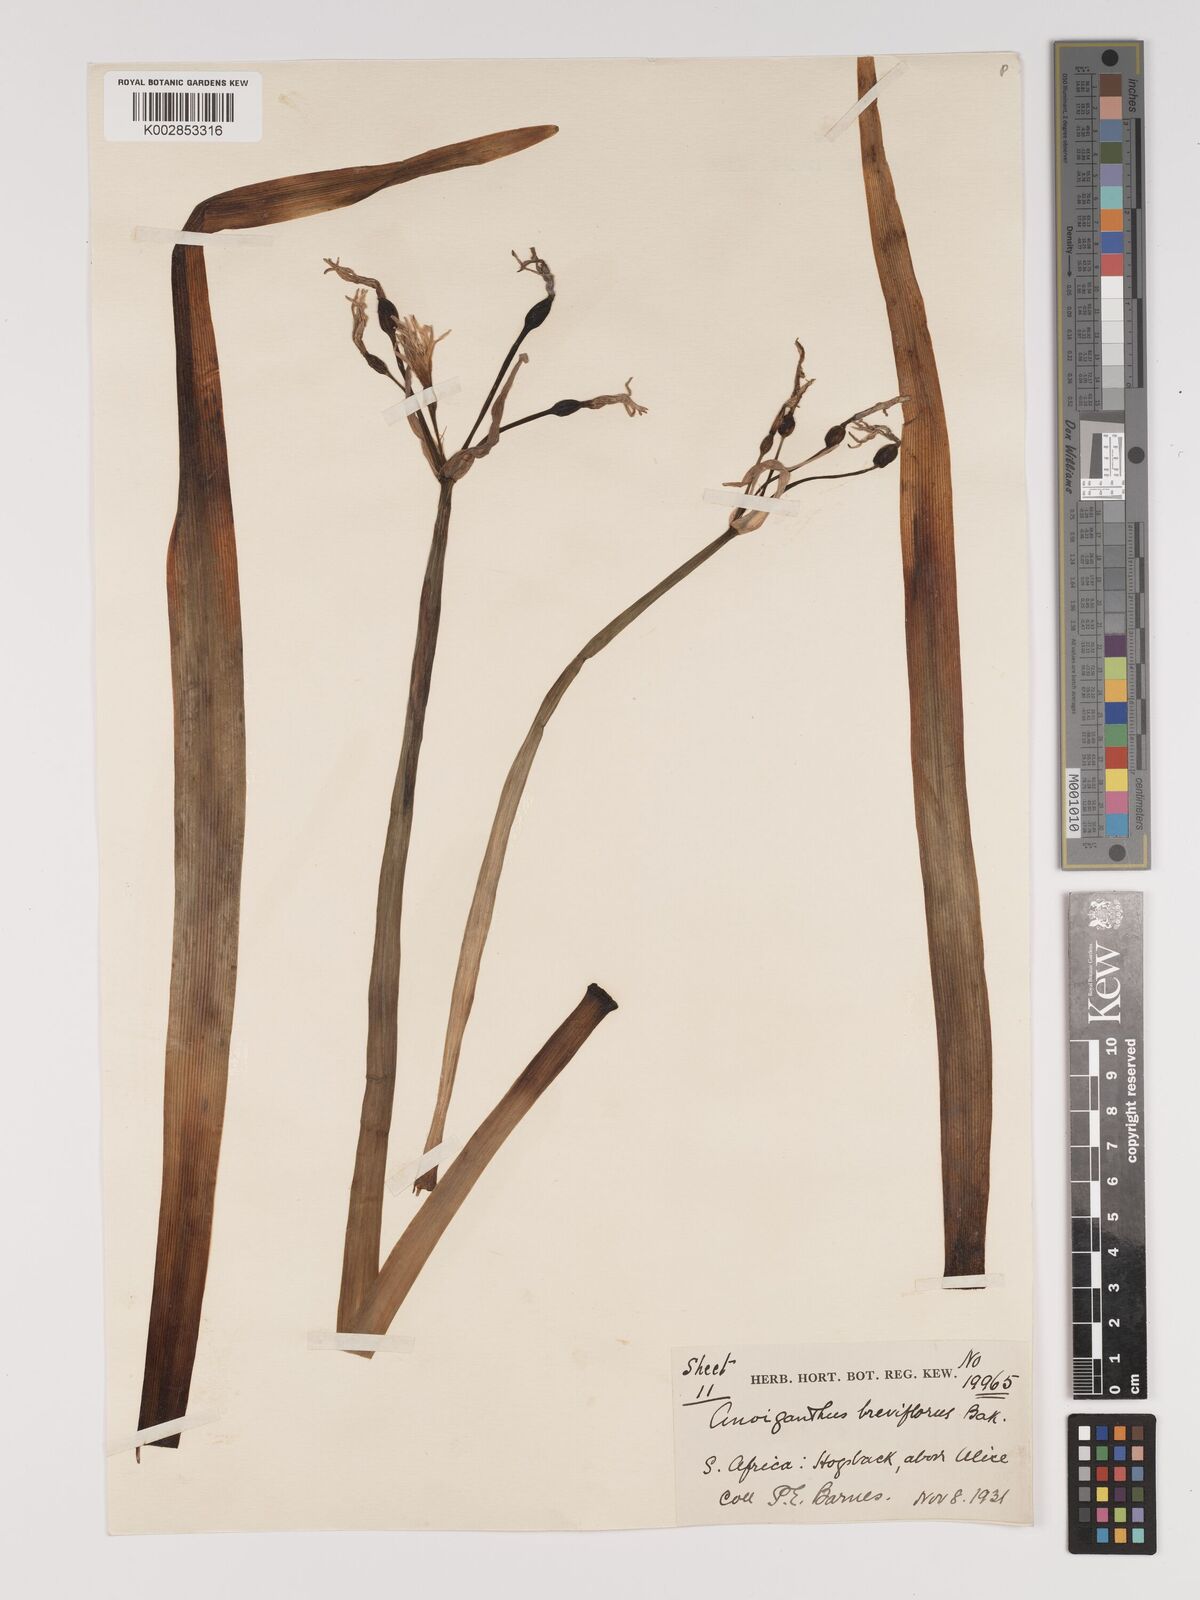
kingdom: Plantae
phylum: Tracheophyta
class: Liliopsida
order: Asparagales
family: Amaryllidaceae
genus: Cyrtanthus
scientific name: Cyrtanthus breviflorus
